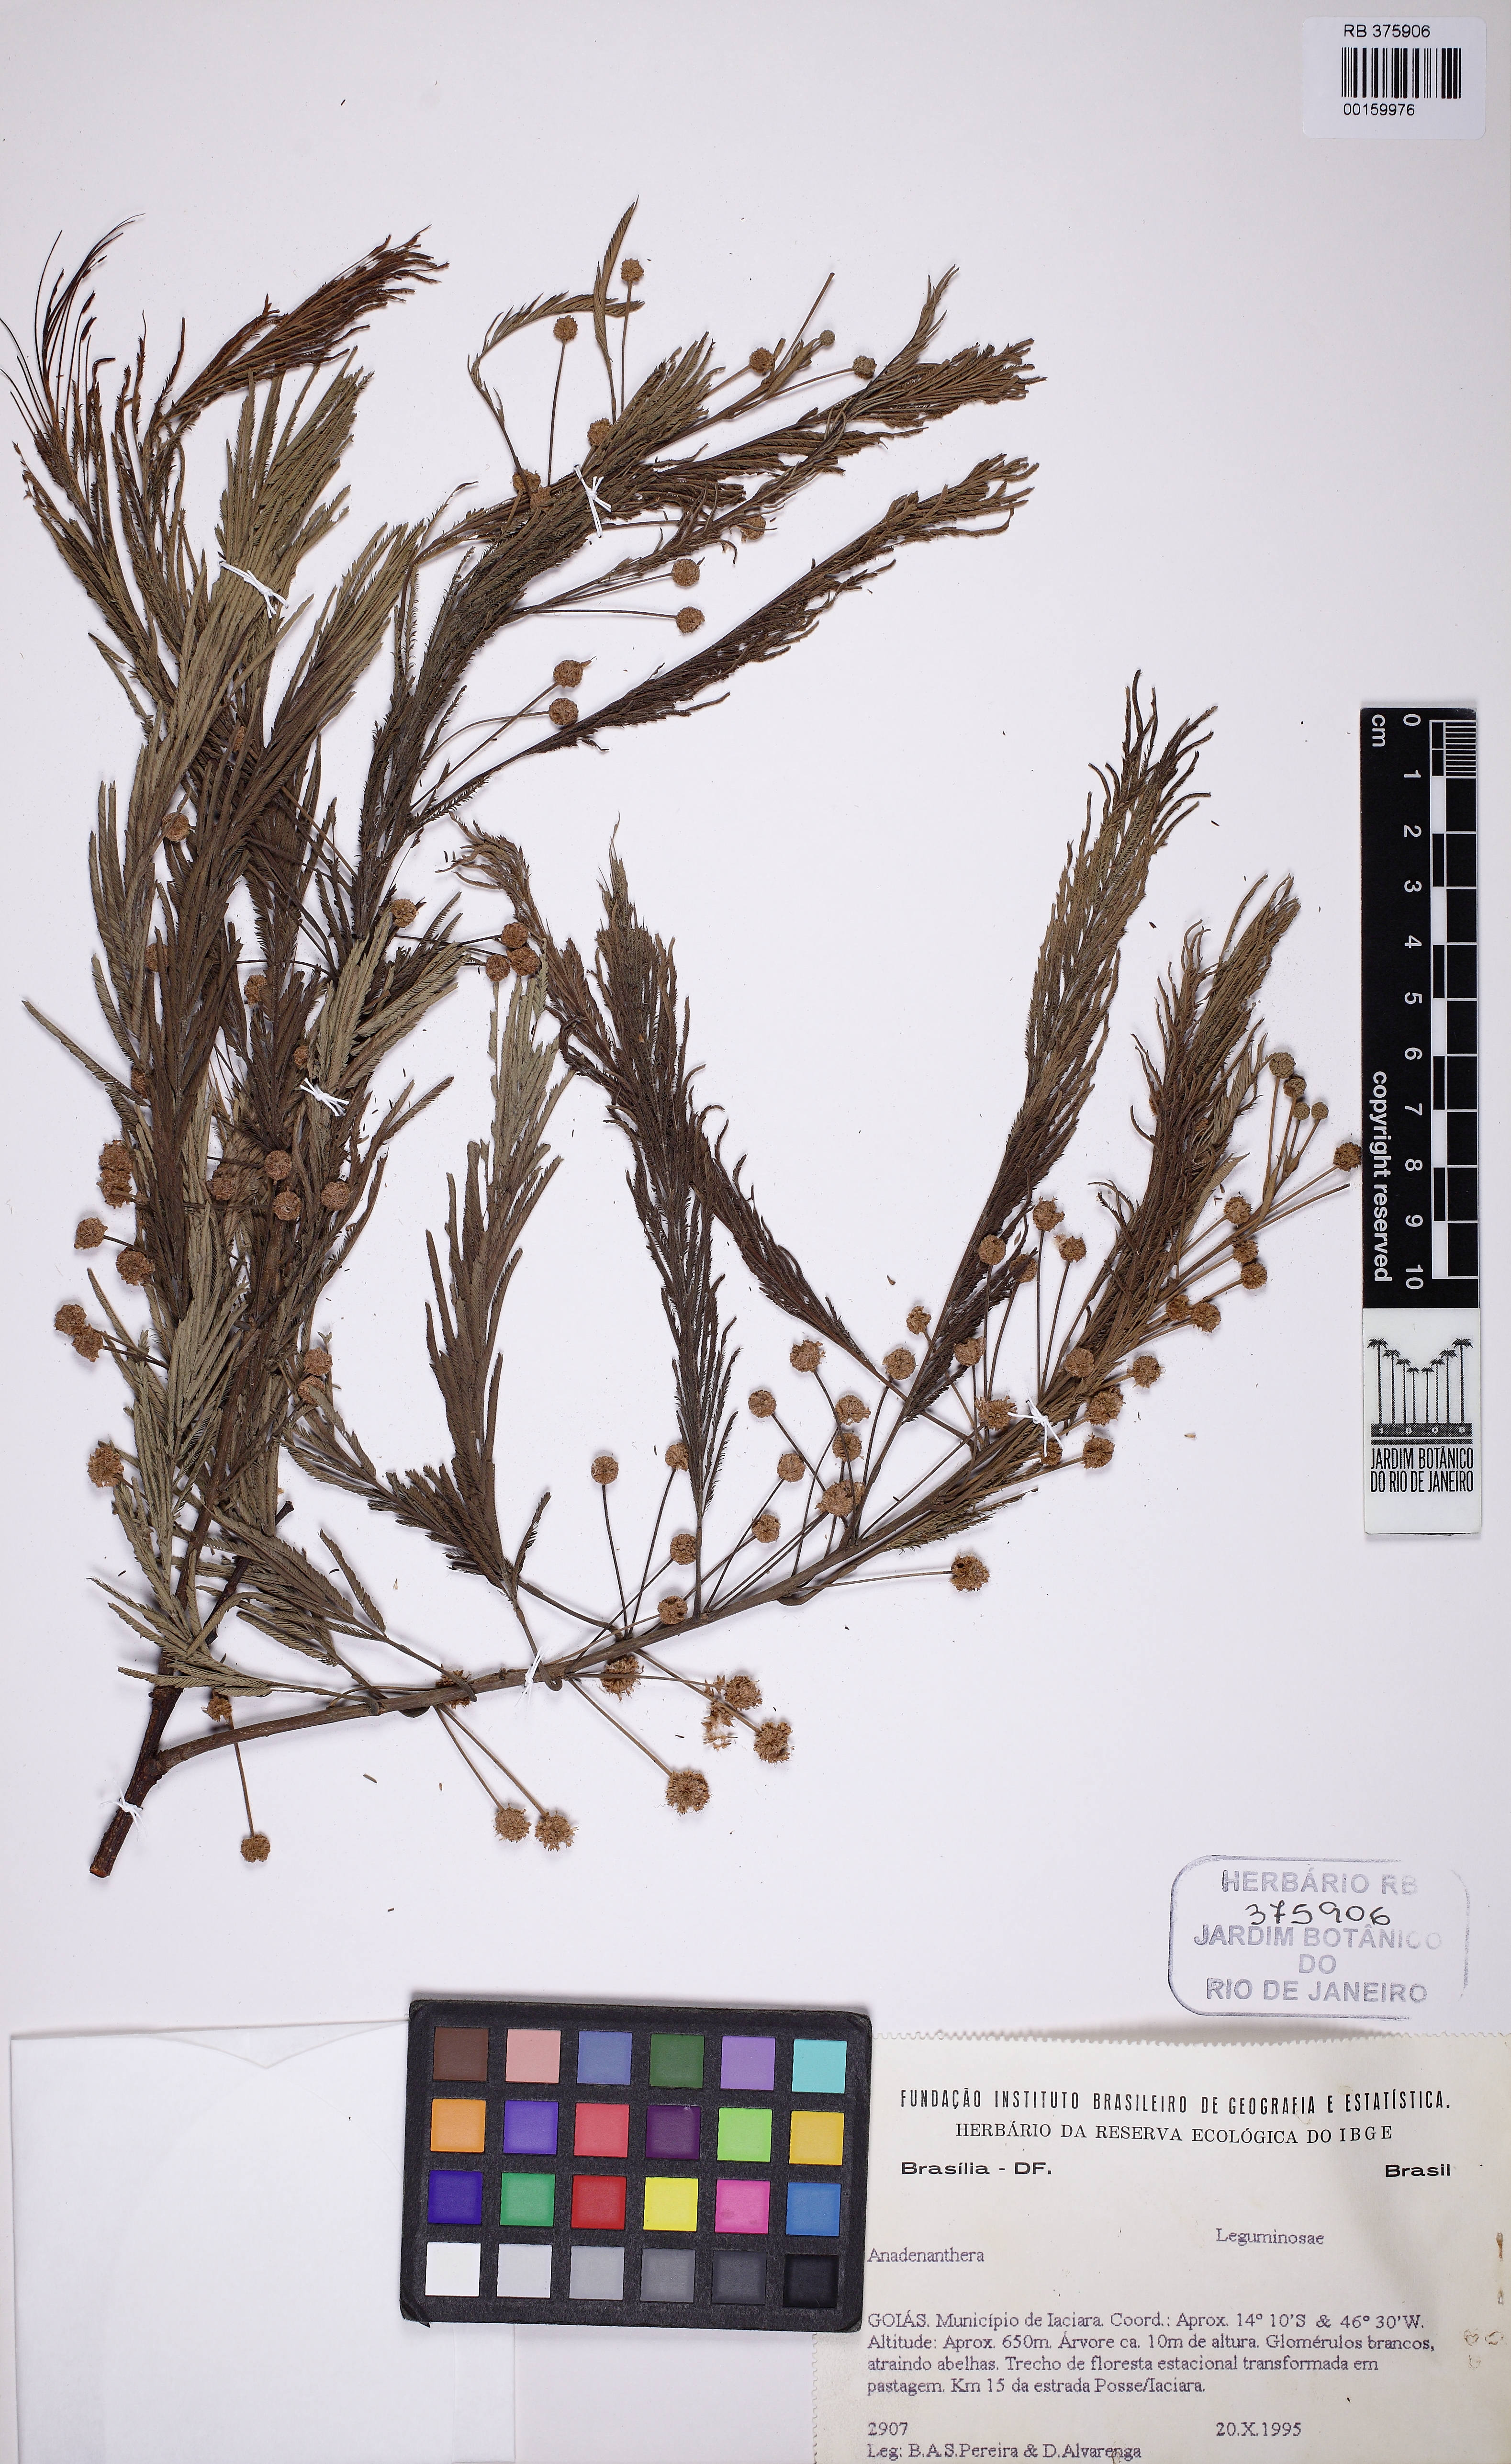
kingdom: Plantae
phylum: Tracheophyta
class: Magnoliopsida
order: Fabales
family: Fabaceae
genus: Anadenanthera
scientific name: Anadenanthera colubrina
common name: Curupay
